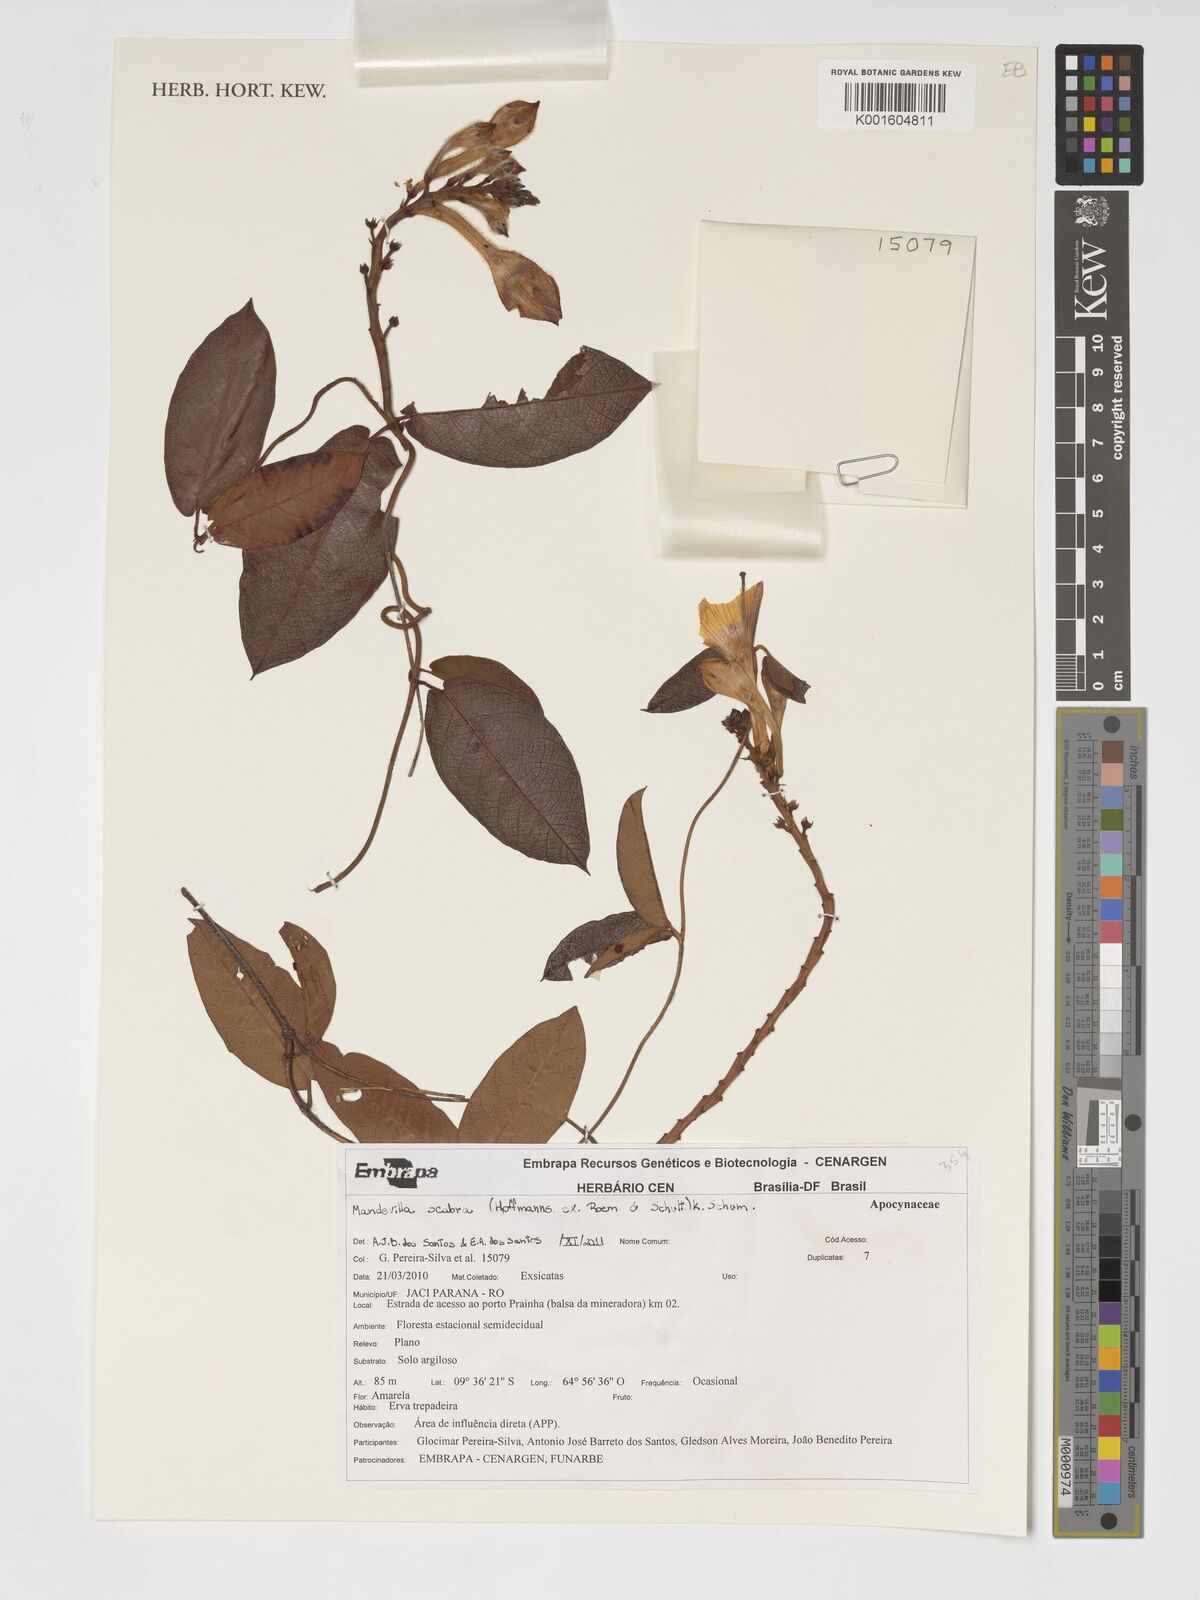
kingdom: Plantae
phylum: Tracheophyta
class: Magnoliopsida
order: Gentianales
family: Apocynaceae
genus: Mandevilla
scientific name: Mandevilla scabra
